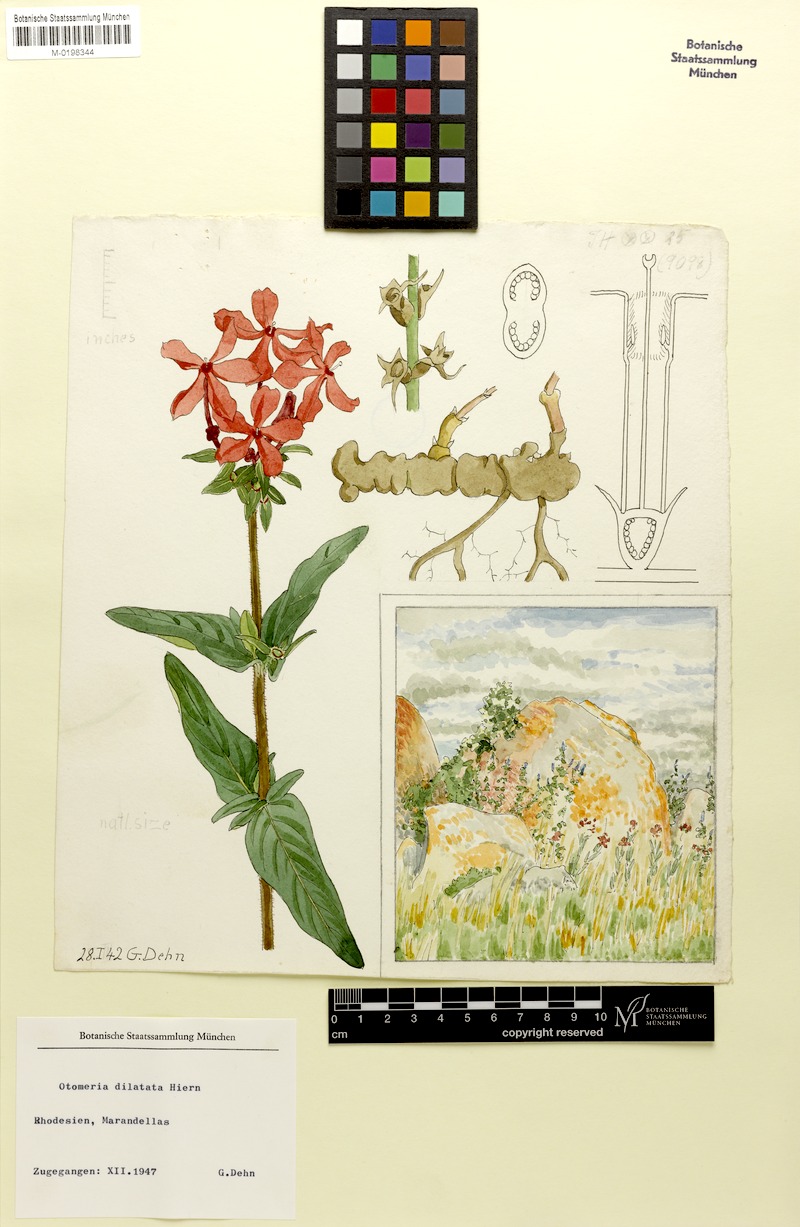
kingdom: Plantae
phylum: Tracheophyta
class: Magnoliopsida
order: Gentianales
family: Rubiaceae
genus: Otomeria
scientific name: Otomeria elatior
